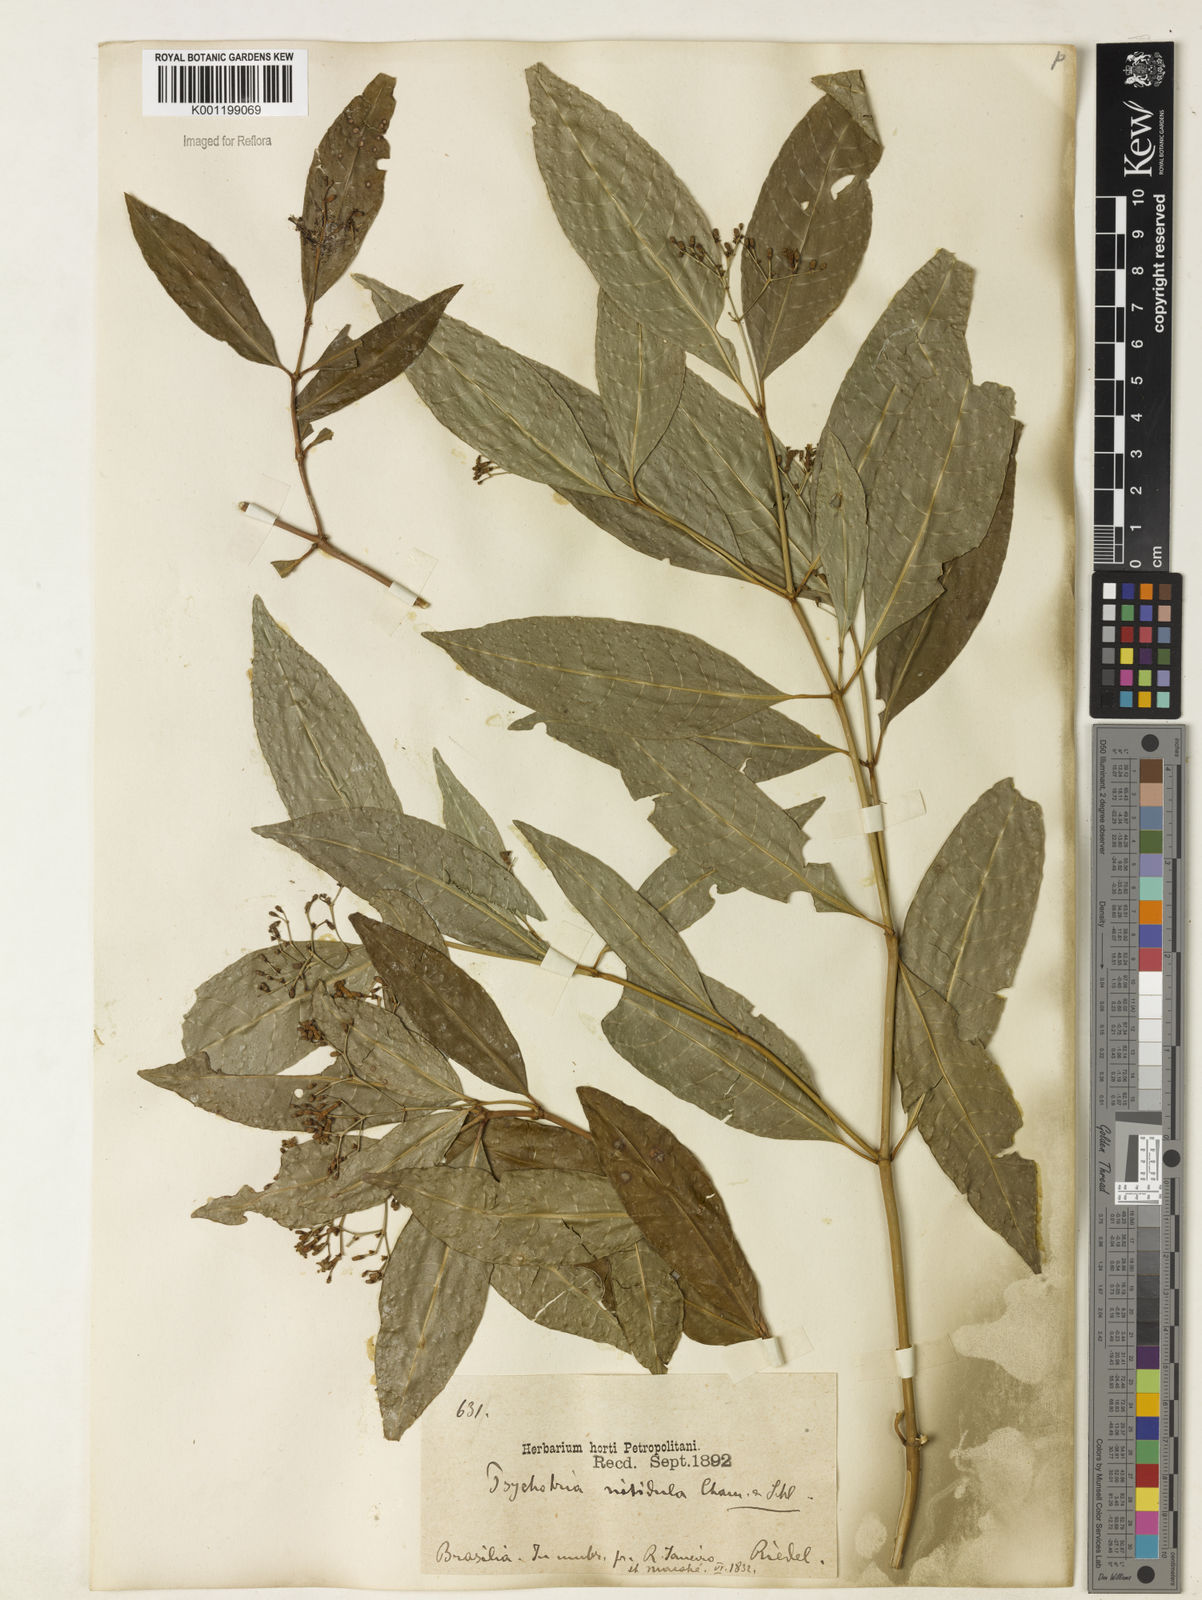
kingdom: Plantae
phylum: Tracheophyta
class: Magnoliopsida
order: Gentianales
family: Rubiaceae
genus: Psychotria
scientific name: Psychotria leiocarpa
